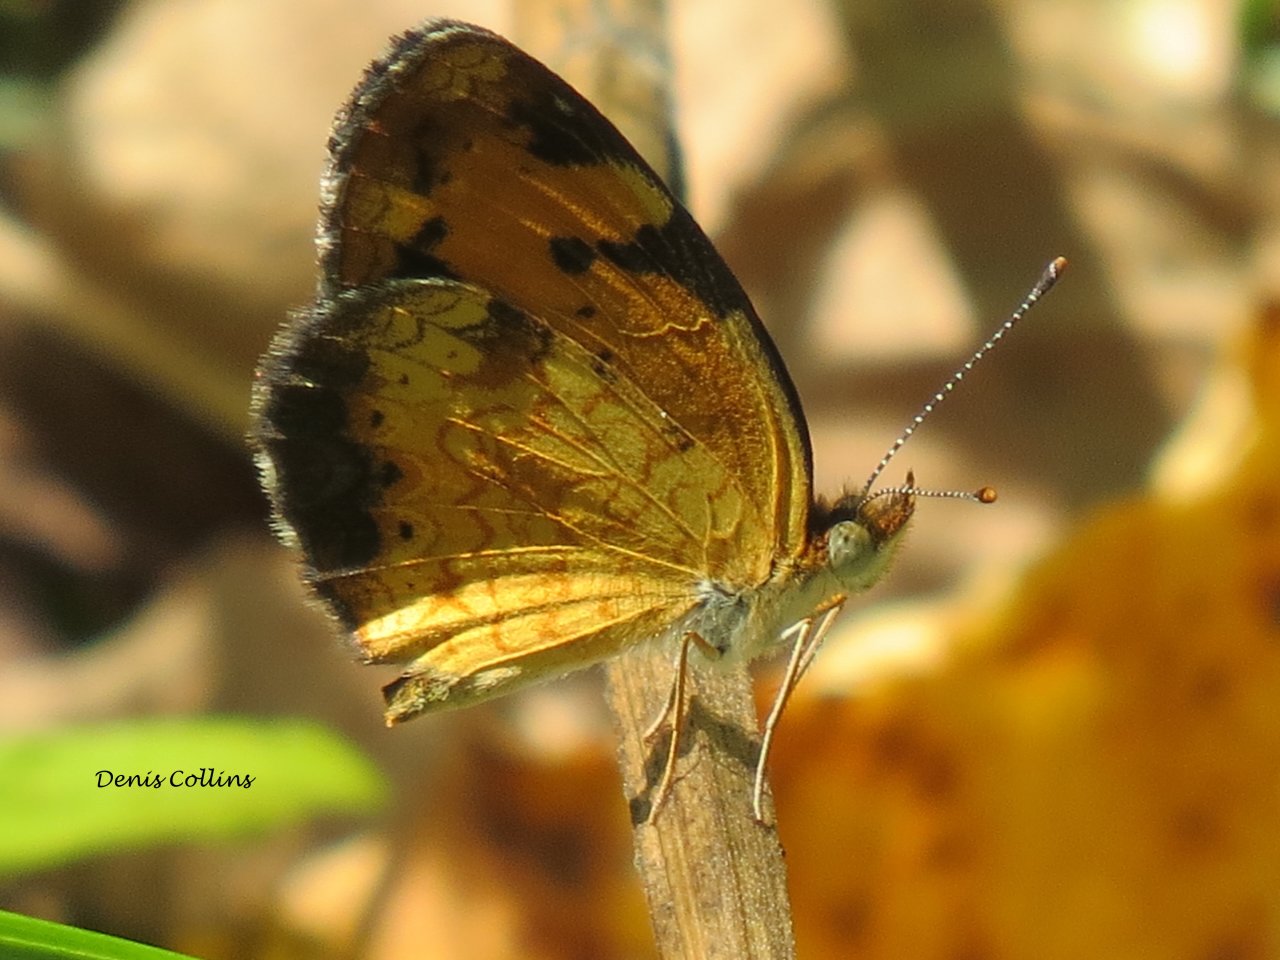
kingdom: Animalia
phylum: Arthropoda
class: Insecta
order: Lepidoptera
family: Nymphalidae
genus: Phyciodes
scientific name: Phyciodes tharos
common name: Northern Crescent
